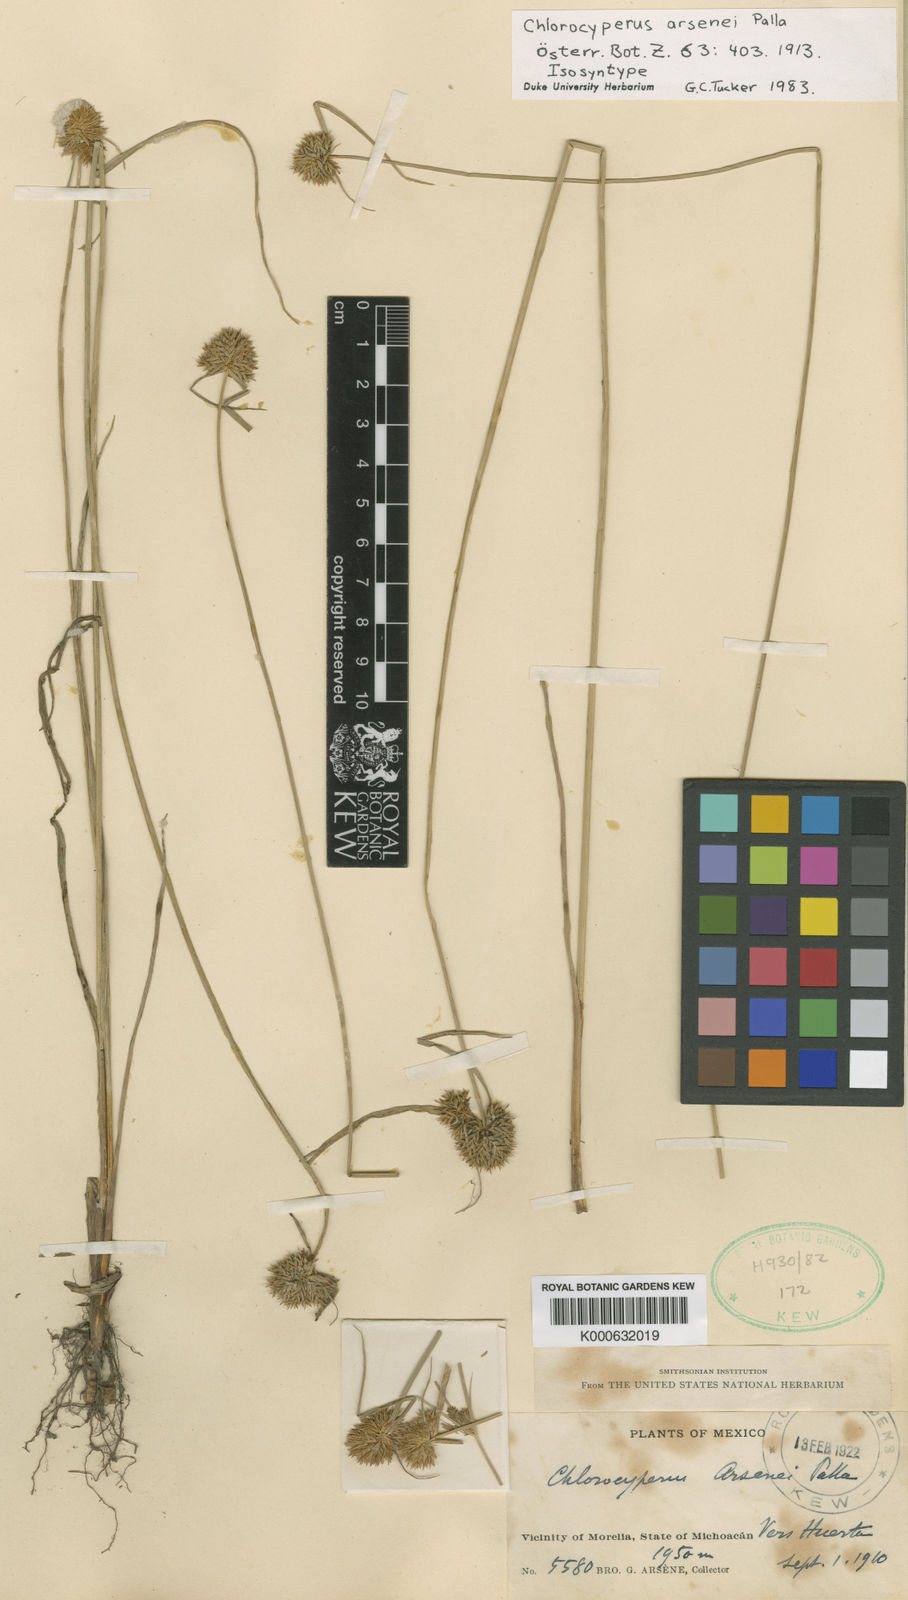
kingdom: Plantae
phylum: Tracheophyta
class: Liliopsida
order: Poales
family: Cyperaceae
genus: Cyperus
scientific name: Cyperus ischnos
